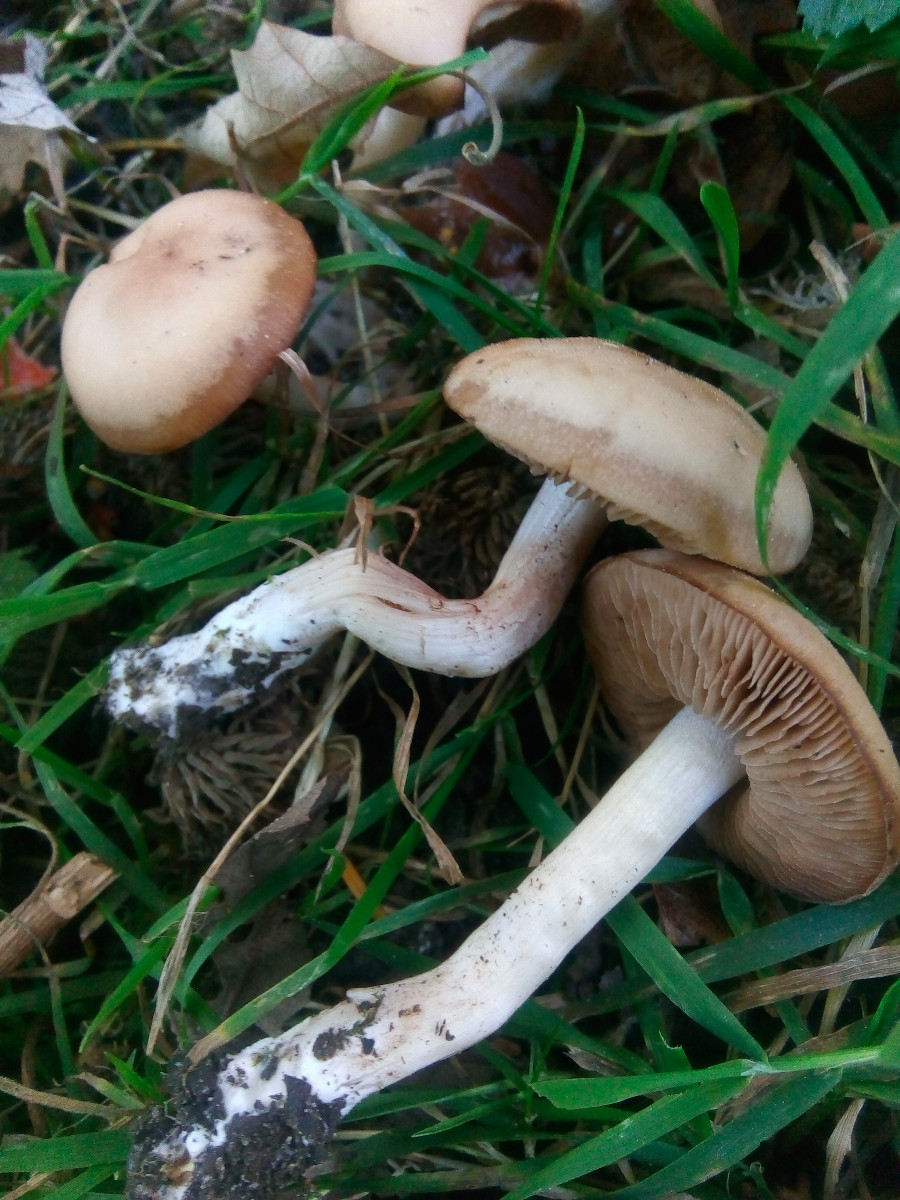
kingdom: Fungi
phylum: Basidiomycota
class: Agaricomycetes
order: Agaricales
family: Psathyrellaceae
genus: Homophron
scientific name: Homophron spadiceum
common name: daddelbrun mørkhat
